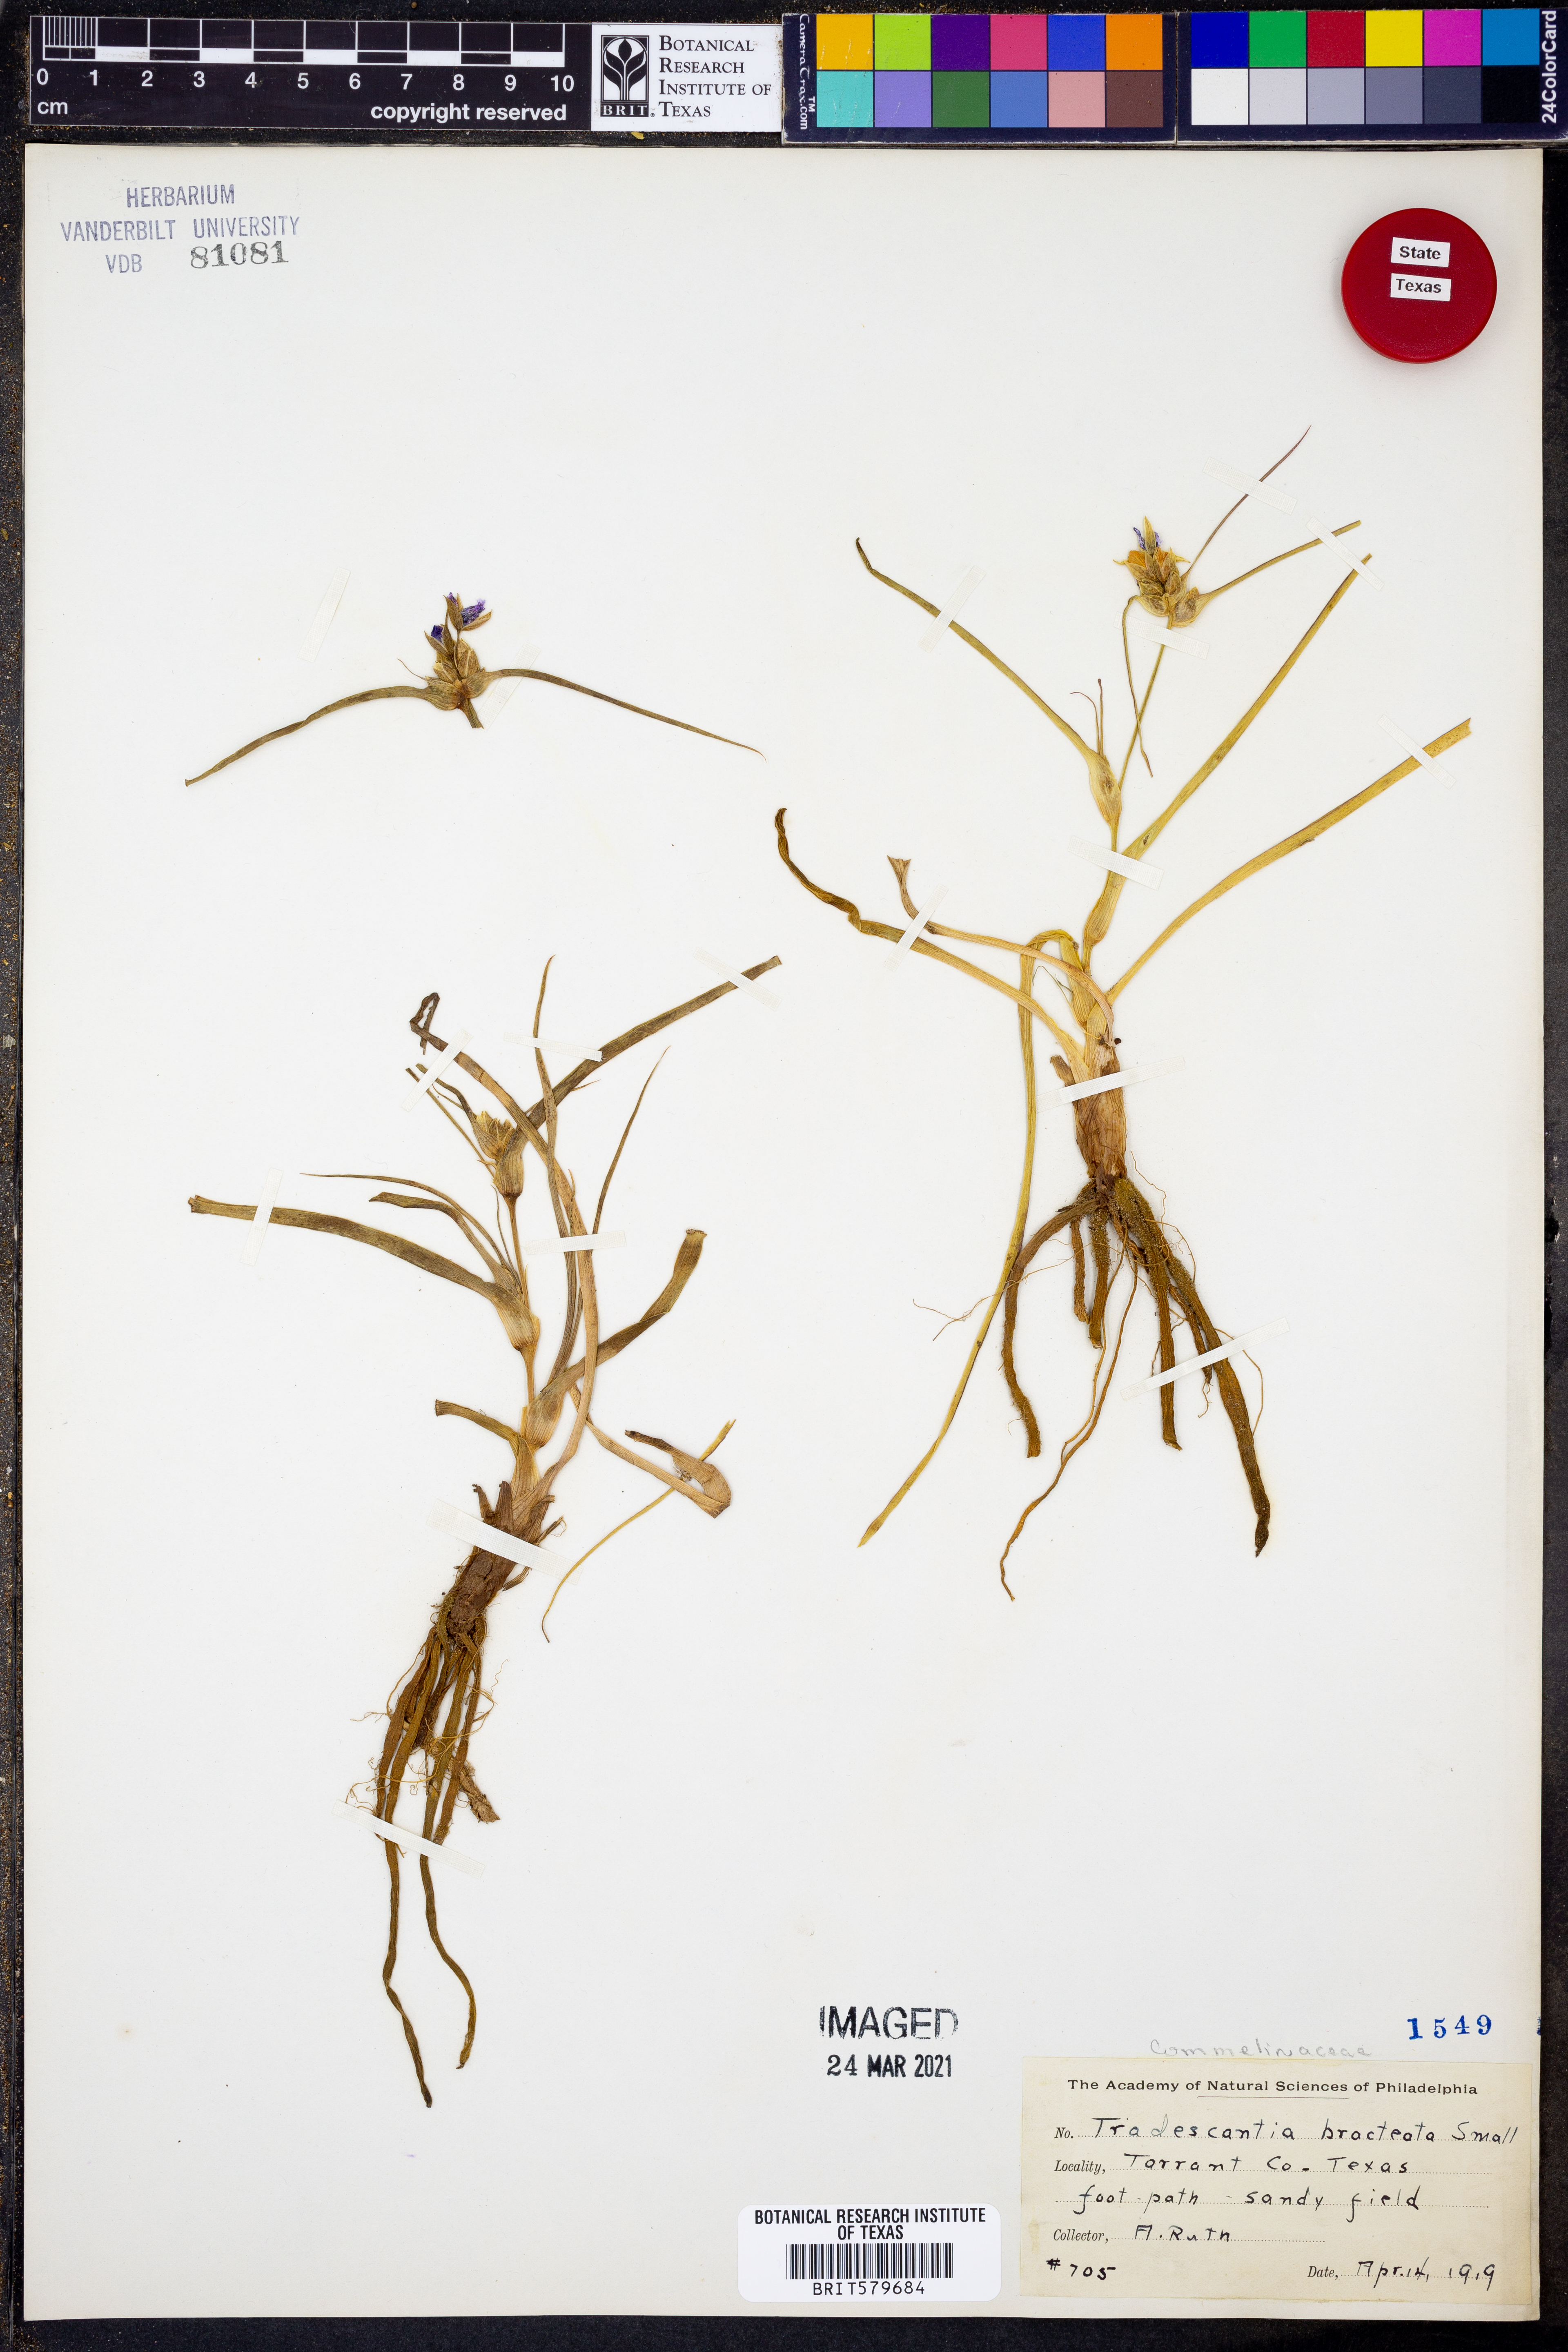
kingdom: Plantae
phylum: Tracheophyta
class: Liliopsida
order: Commelinales
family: Commelinaceae
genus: Tradescantia
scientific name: Tradescantia bracteata
